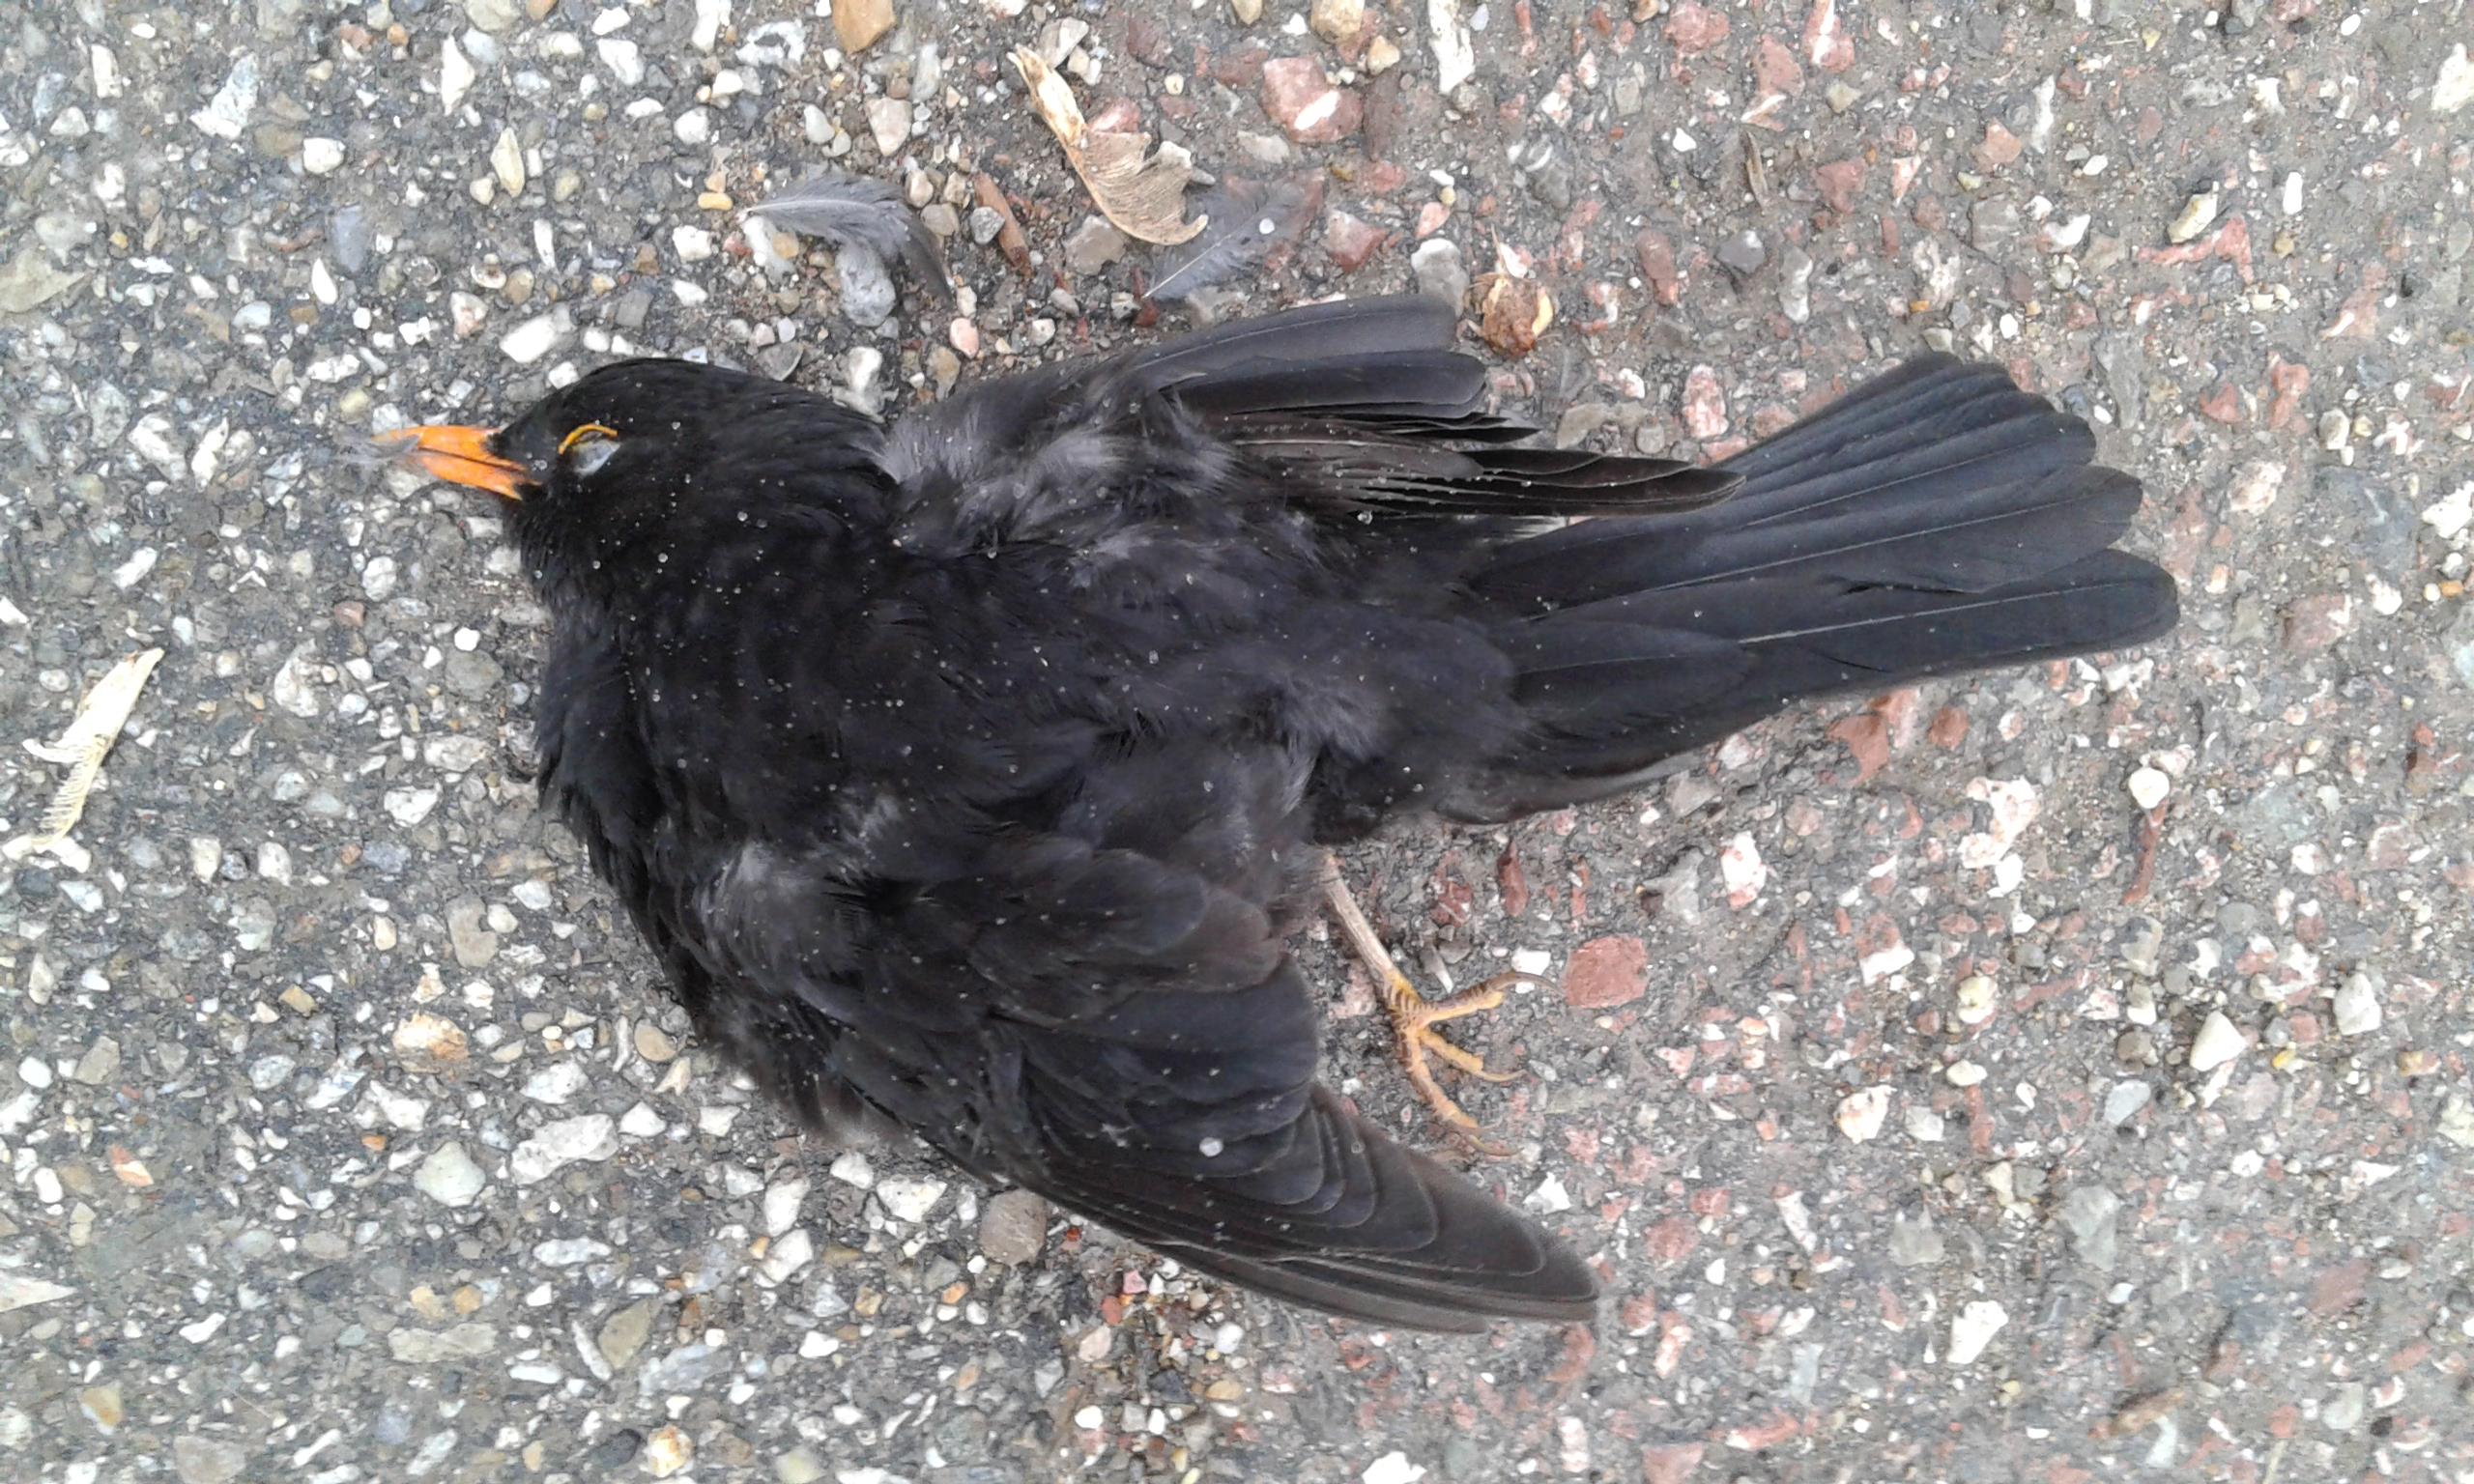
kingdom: Animalia
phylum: Chordata
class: Aves
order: Passeriformes
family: Turdidae
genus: Turdus
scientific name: Turdus merula
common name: Common blackbird
